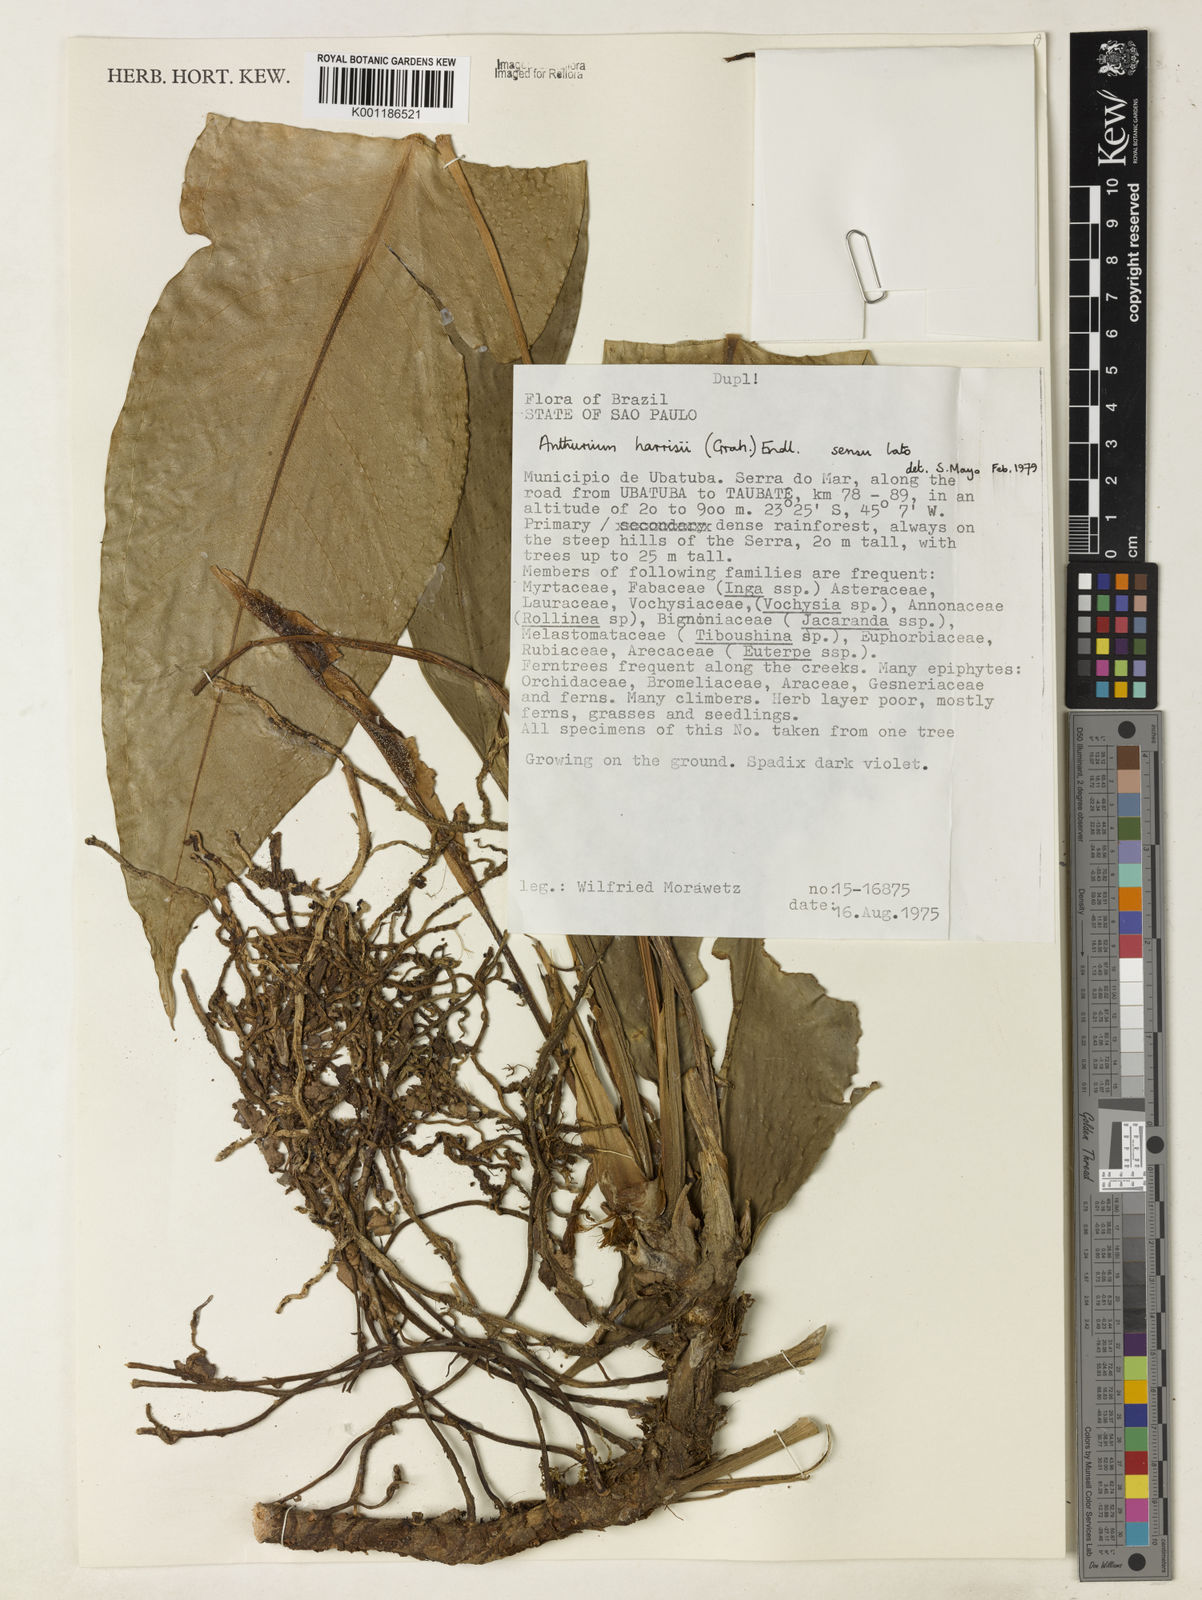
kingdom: Plantae
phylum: Tracheophyta
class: Liliopsida
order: Alismatales
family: Araceae
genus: Anthurium
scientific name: Anthurium harrisii
